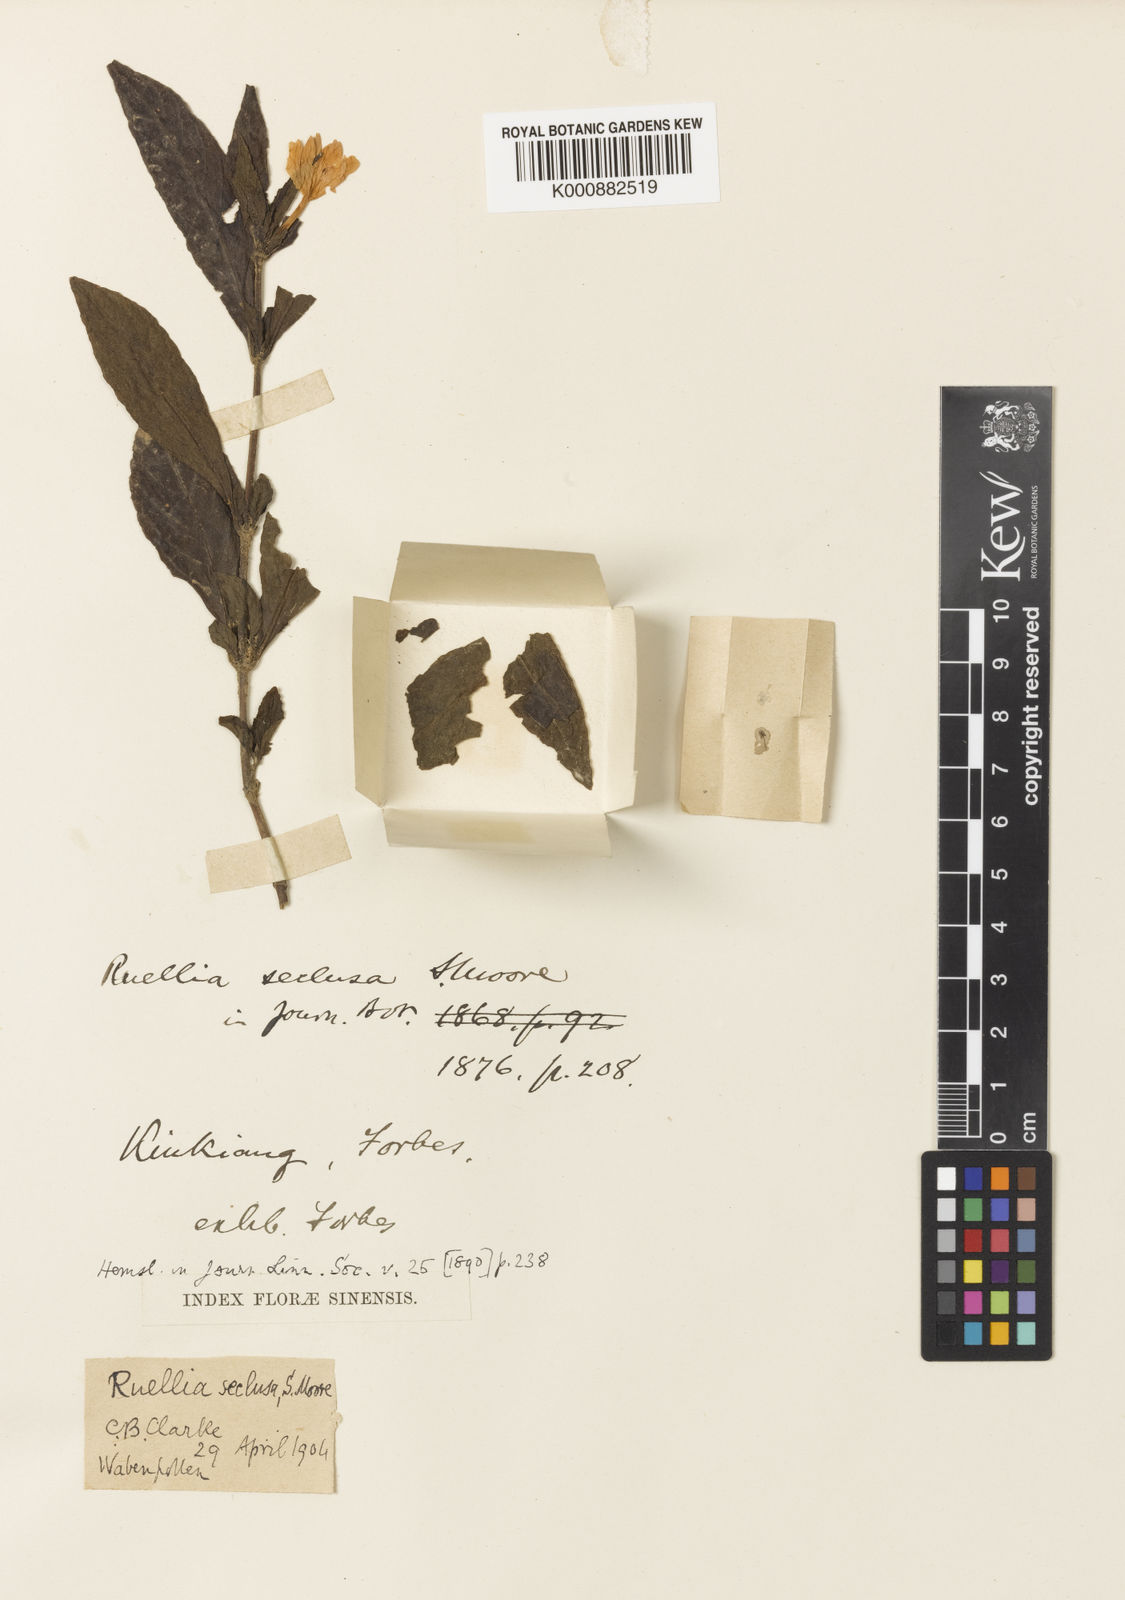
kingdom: Plantae
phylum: Tracheophyta
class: Magnoliopsida
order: Lamiales
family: Acanthaceae
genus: Pseudosiphonium
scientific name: Pseudosiphonium venustum
